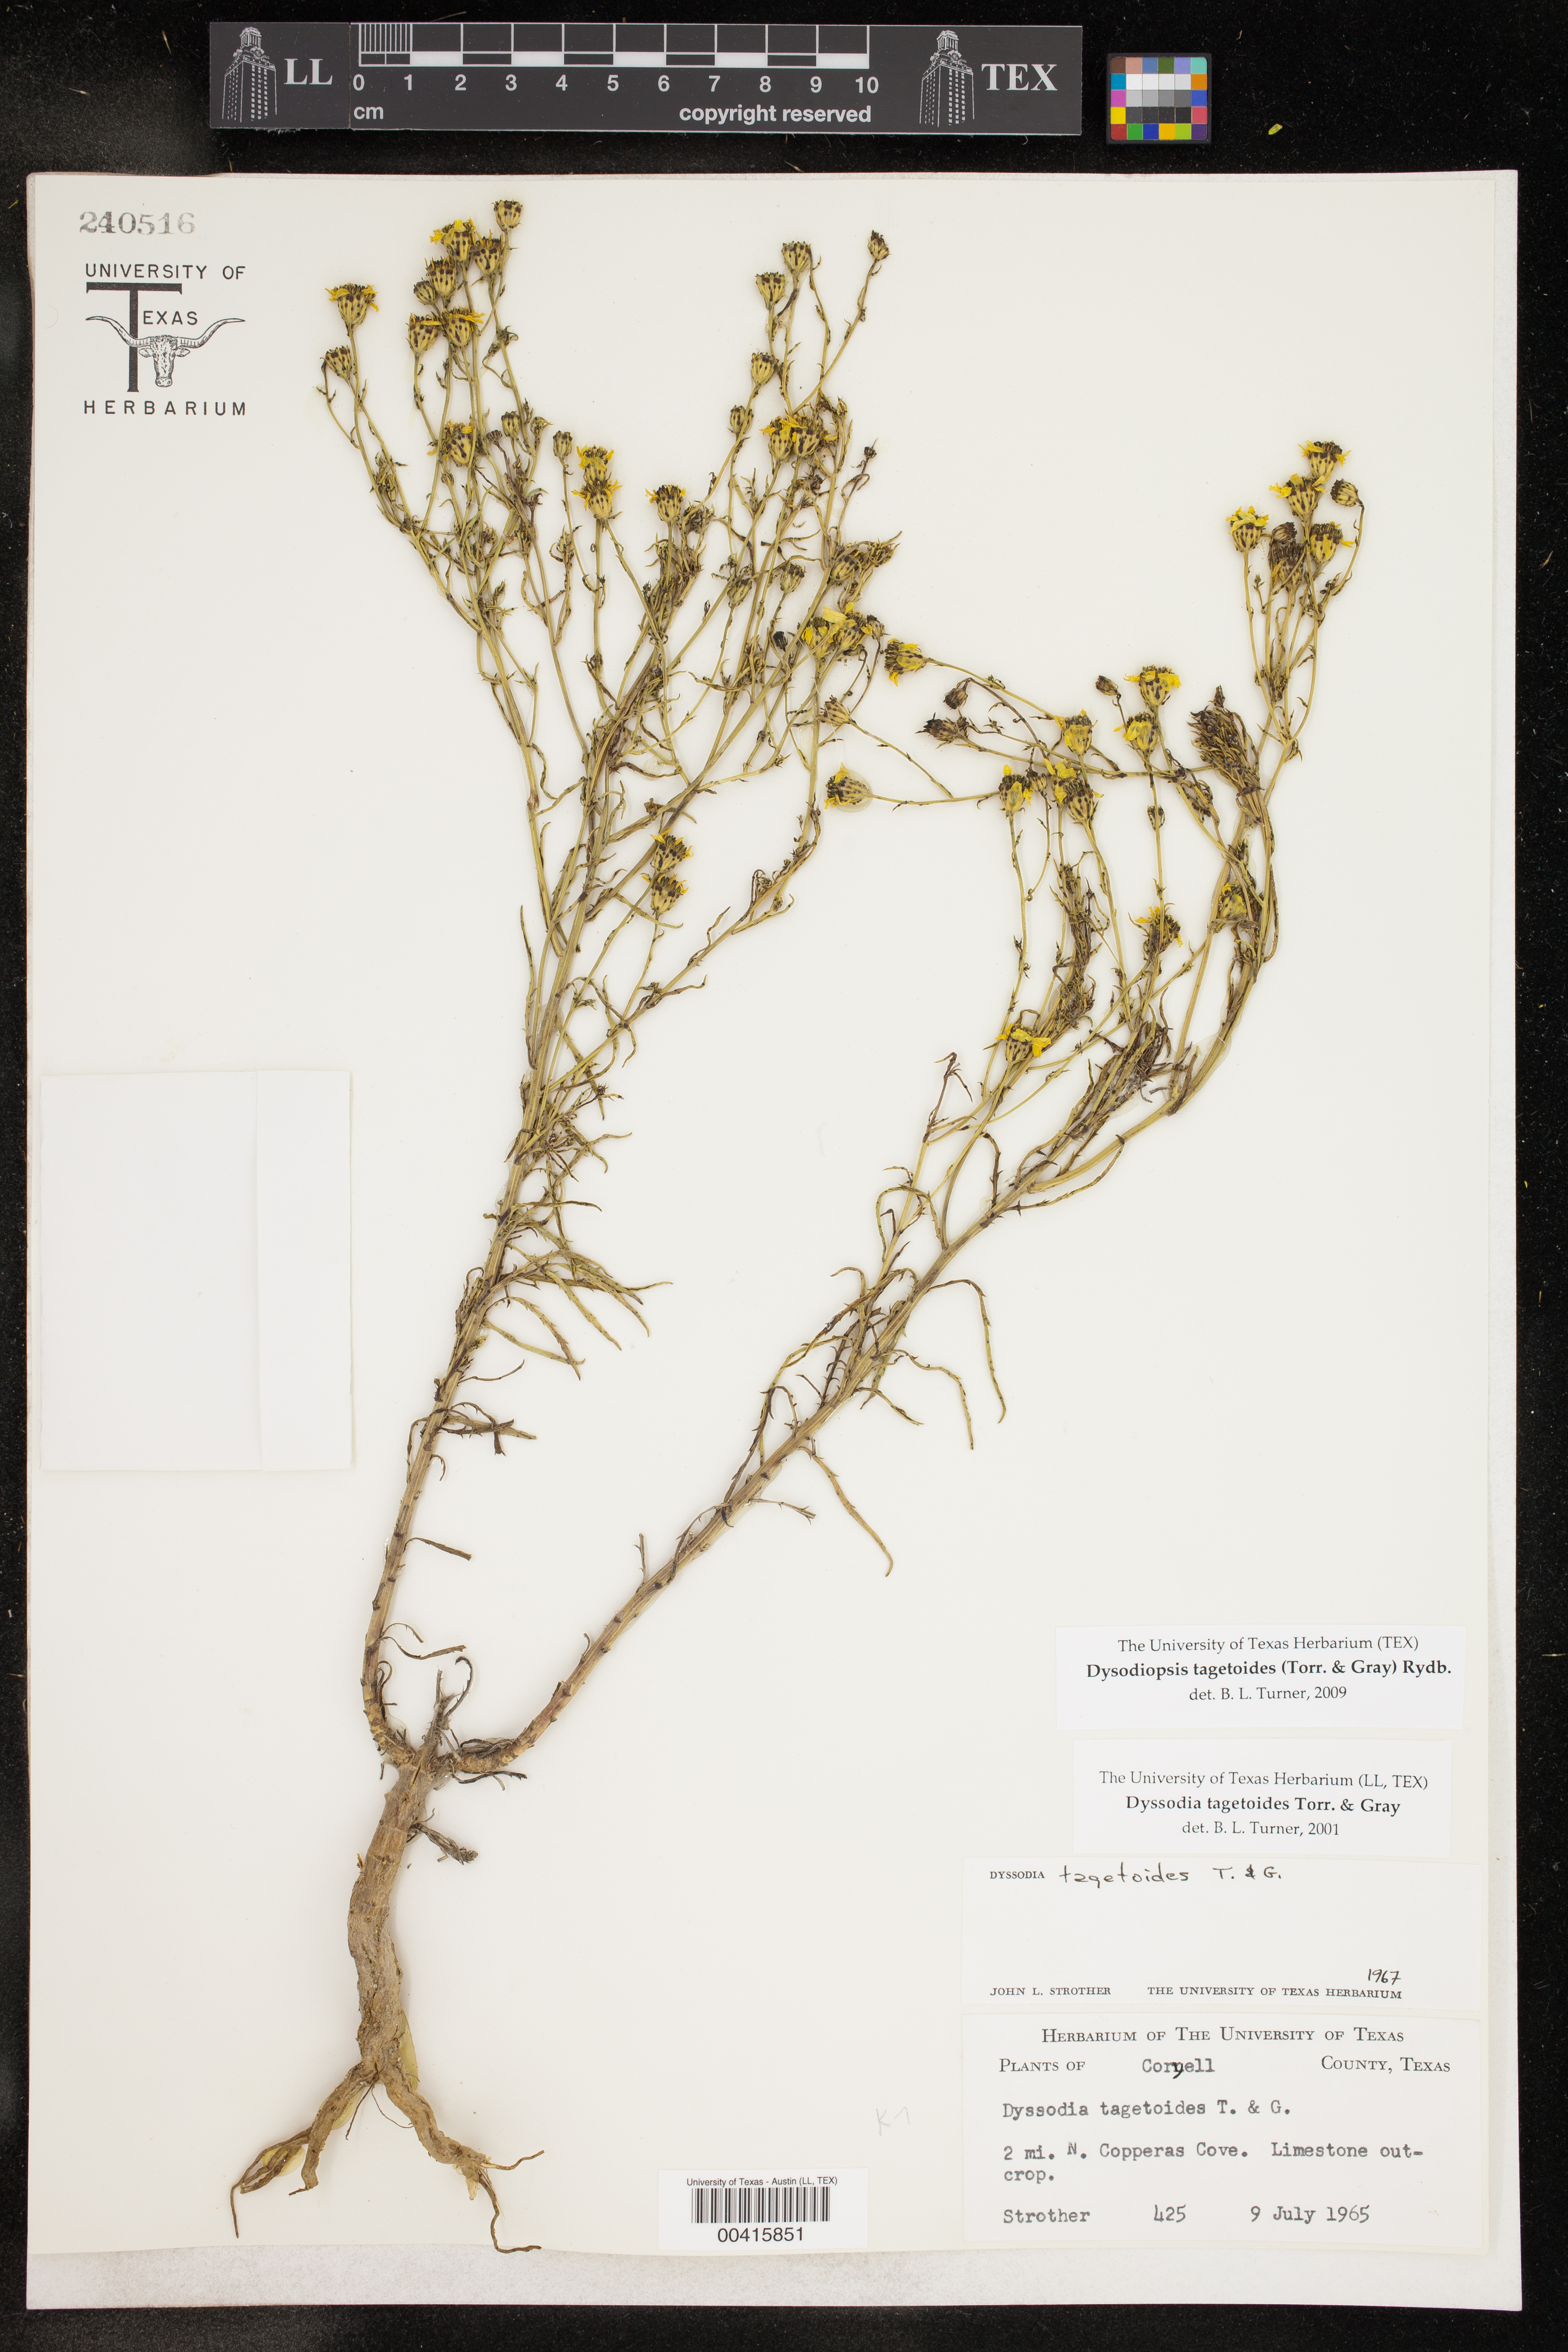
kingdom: Plantae
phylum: Tracheophyta
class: Magnoliopsida
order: Asterales
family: Asteraceae
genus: Dysodiopsis
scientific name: Dysodiopsis tagetoides
